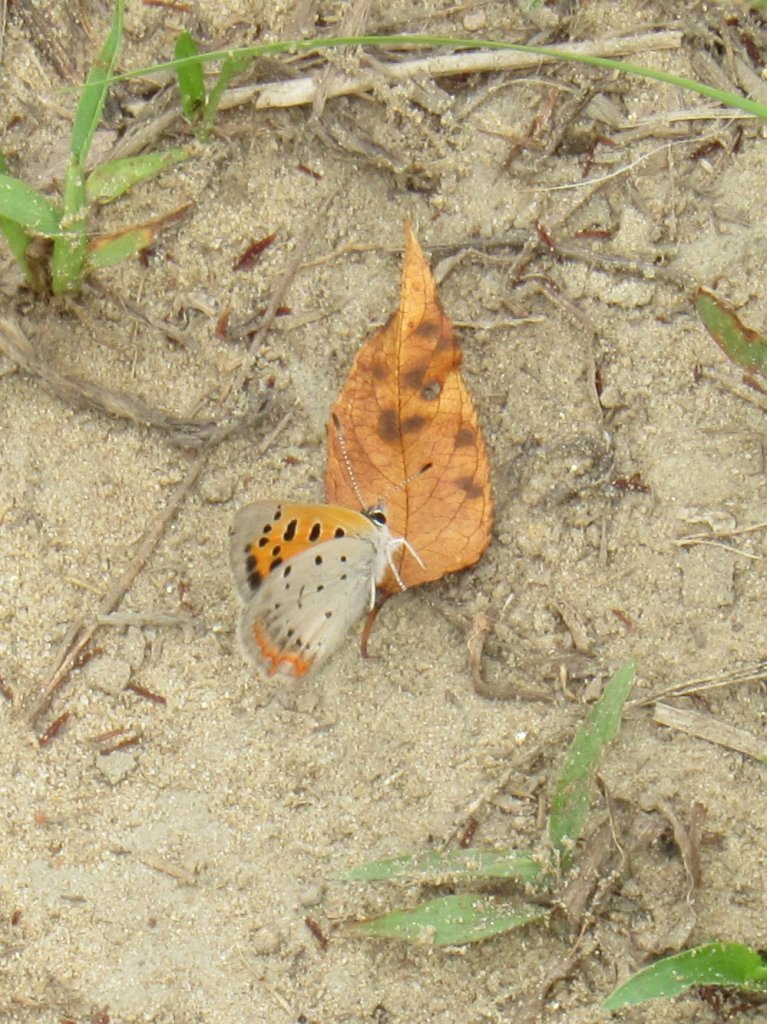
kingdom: Animalia
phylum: Arthropoda
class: Insecta
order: Lepidoptera
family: Lycaenidae
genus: Lycaena
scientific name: Lycaena phlaeas
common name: American Copper
